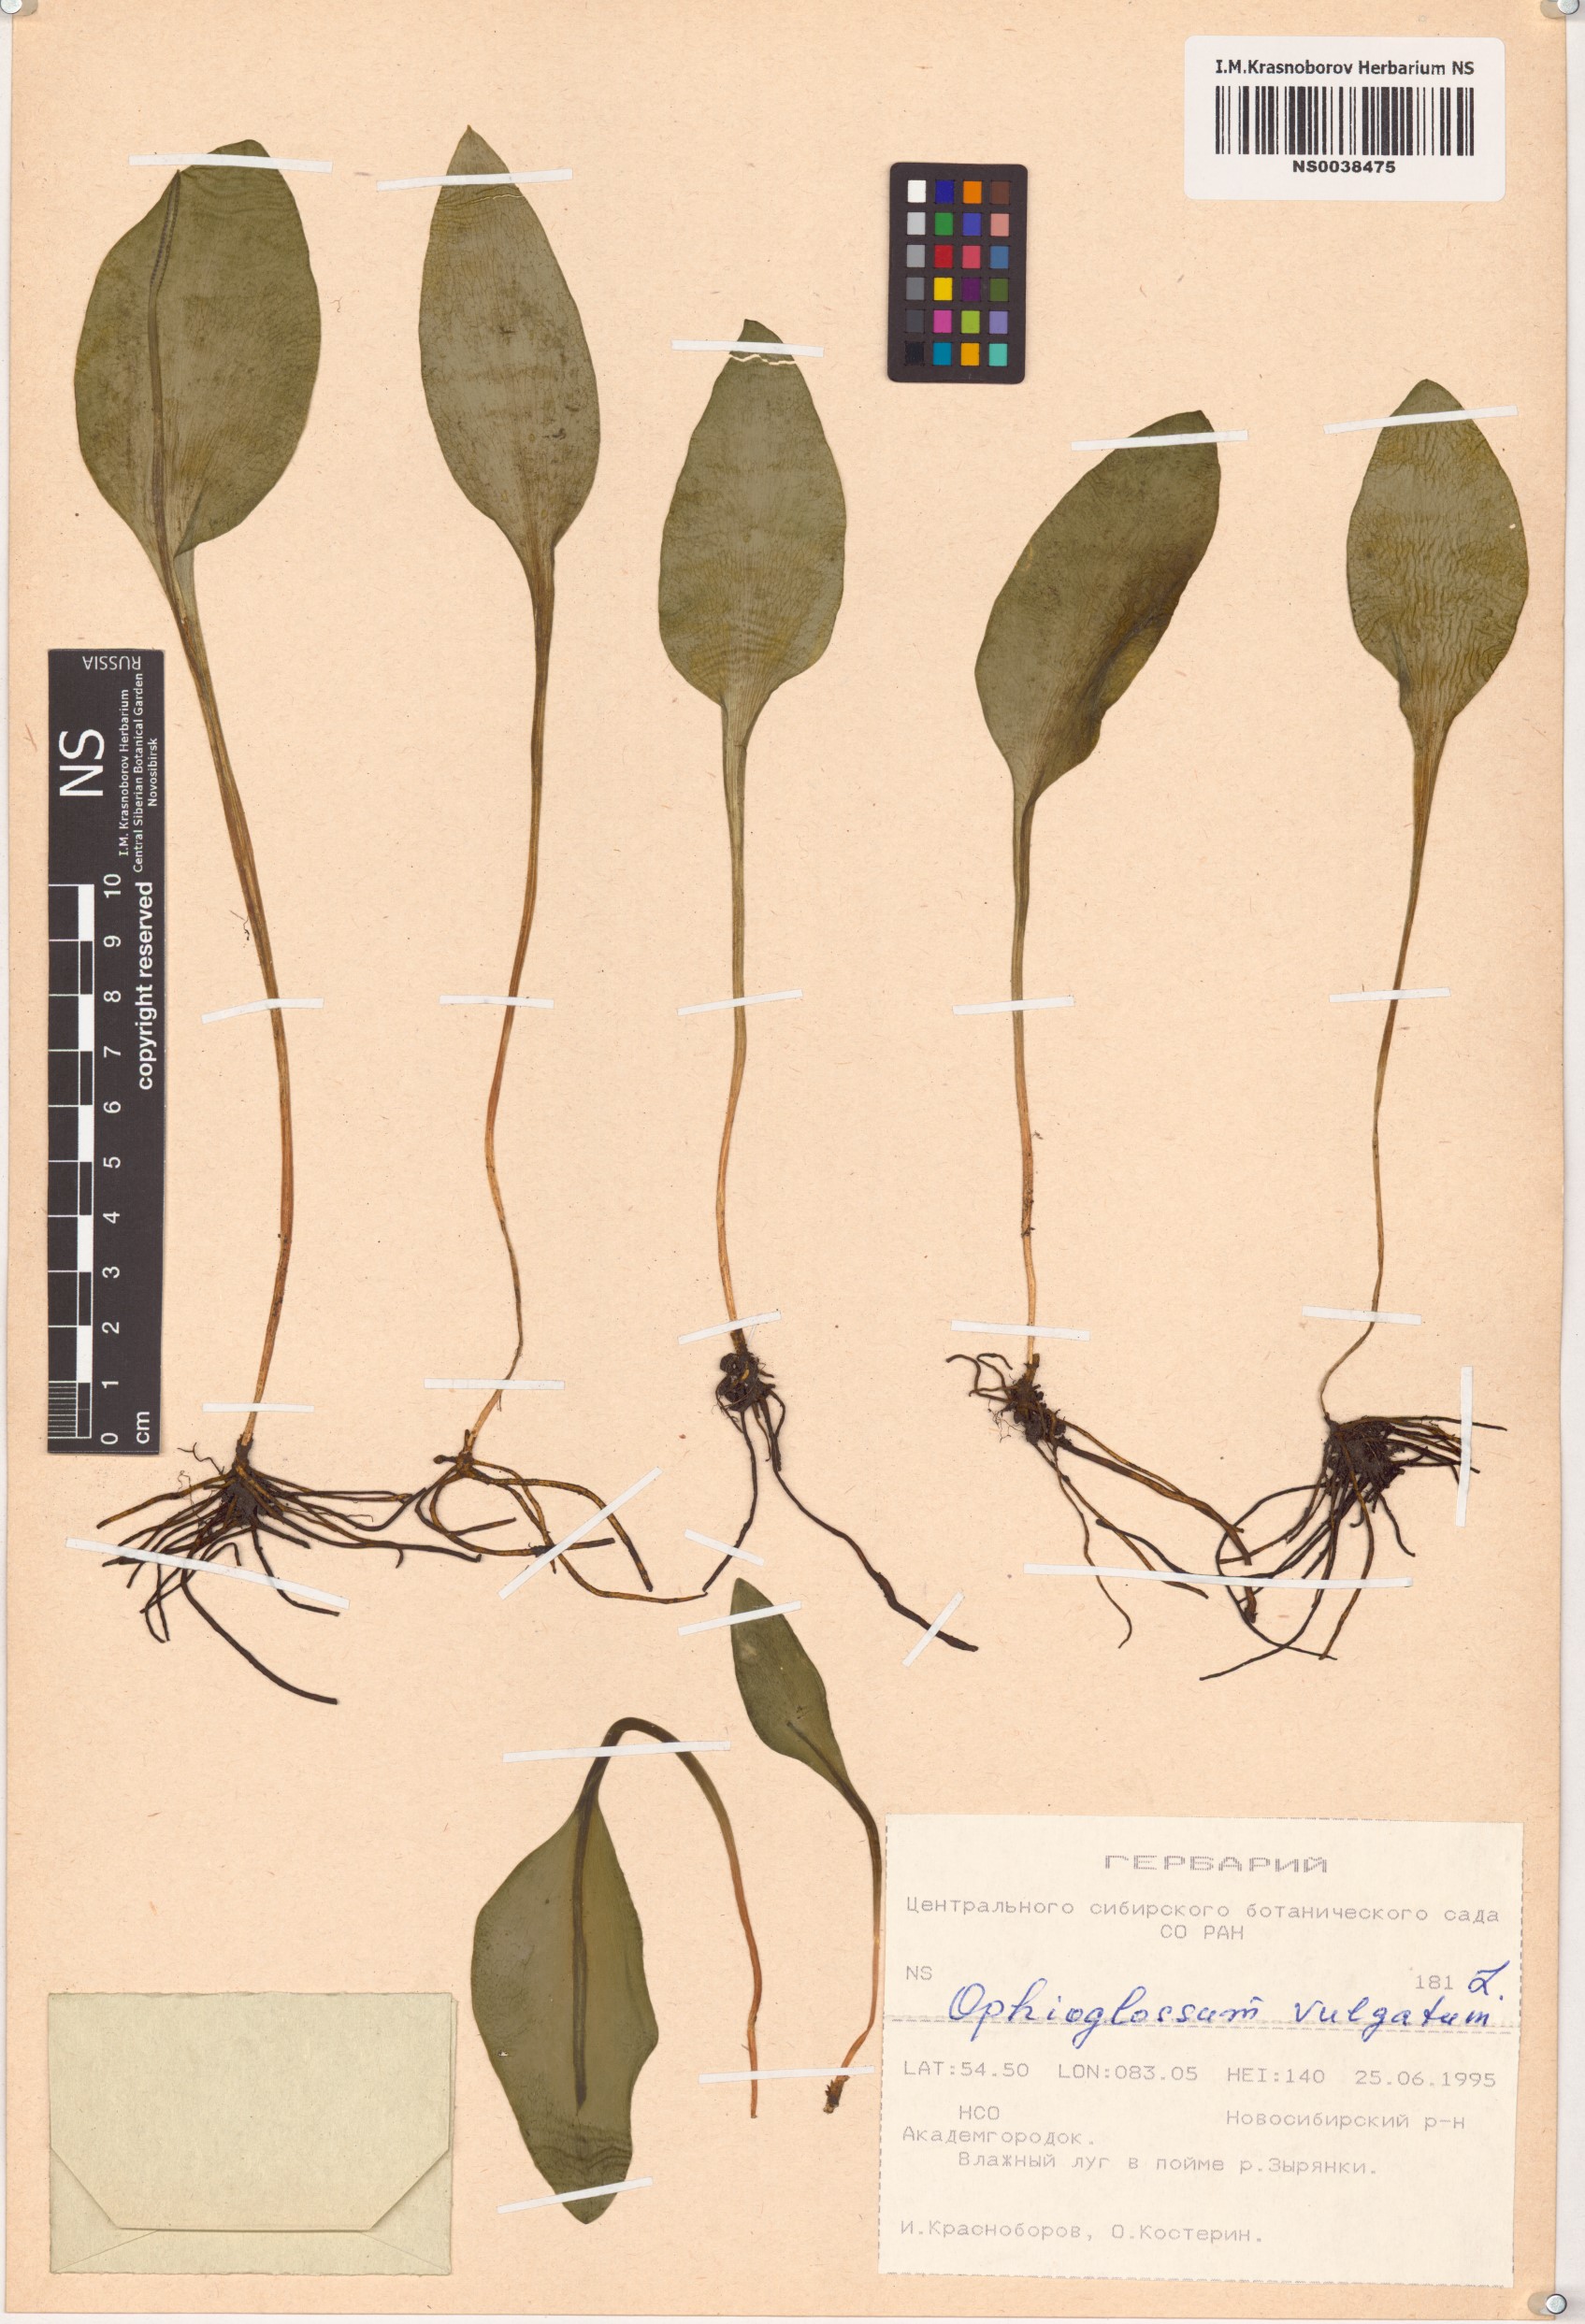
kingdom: Plantae
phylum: Tracheophyta
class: Polypodiopsida
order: Ophioglossales
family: Ophioglossaceae
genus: Ophioglossum
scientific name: Ophioglossum vulgatum
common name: Adder's-tongue
